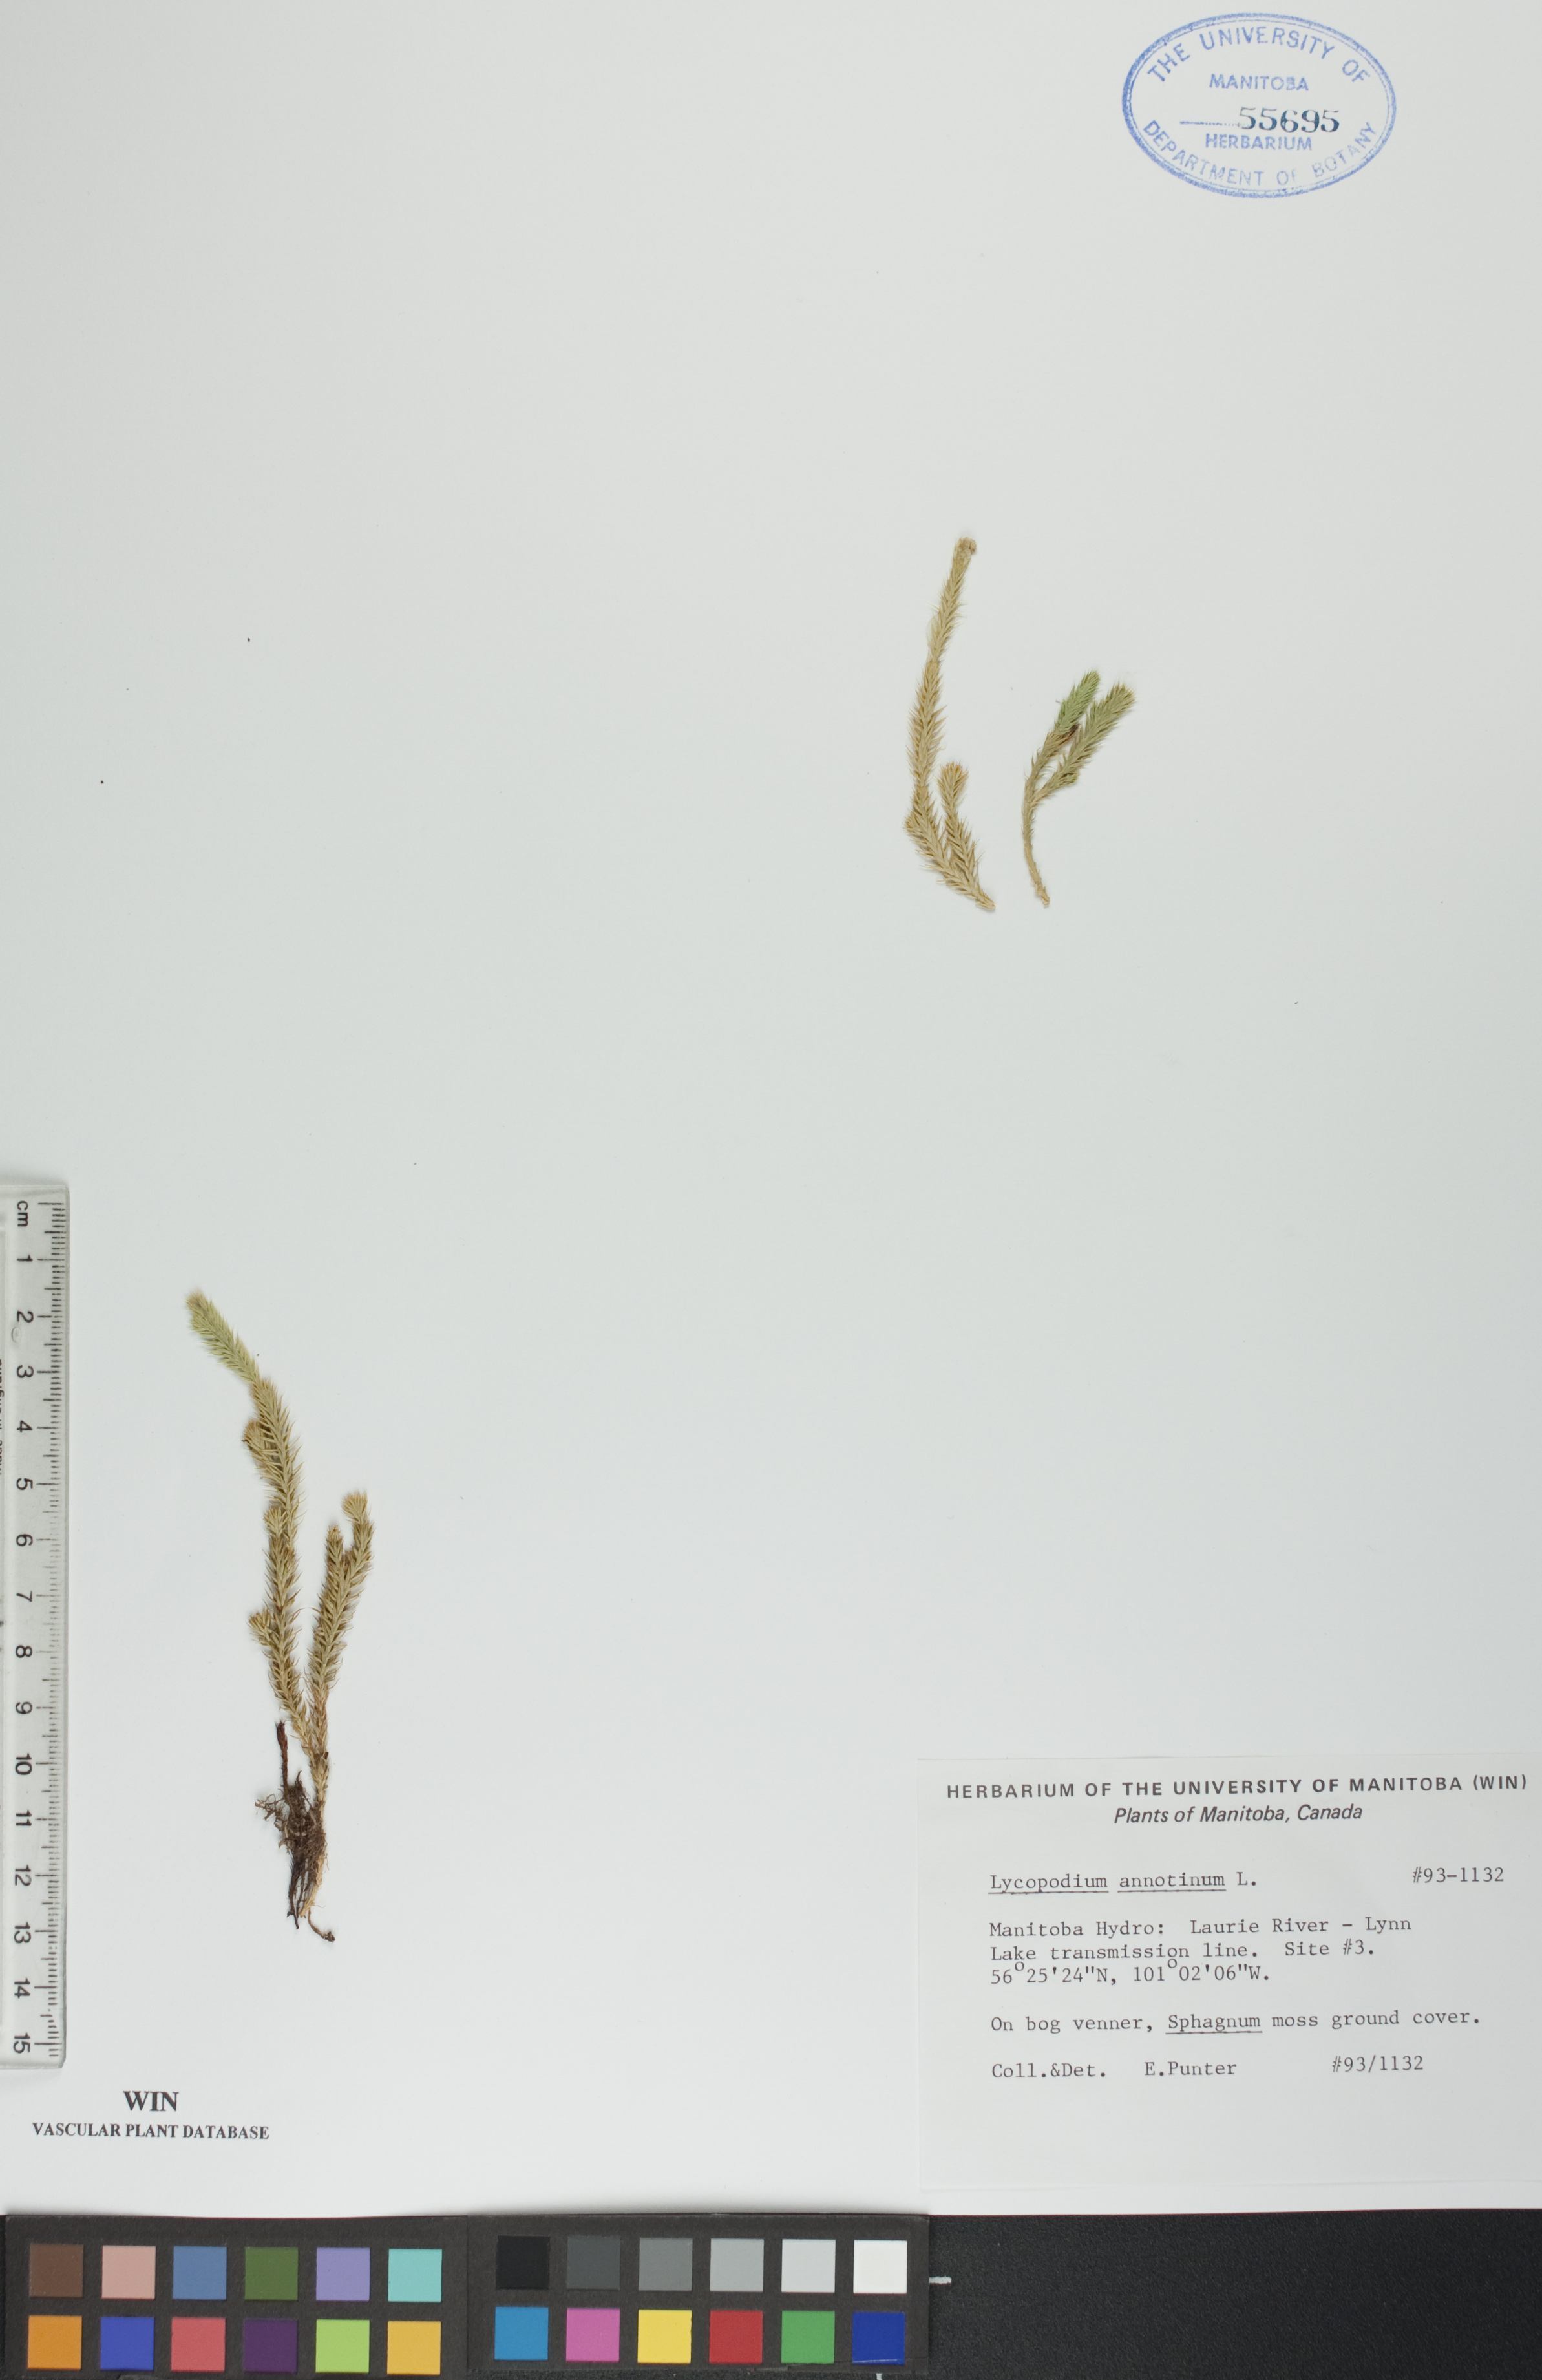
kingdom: Plantae
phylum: Tracheophyta
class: Lycopodiopsida
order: Lycopodiales
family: Lycopodiaceae
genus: Spinulum
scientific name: Spinulum annotinum
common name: Interrupted club-moss
